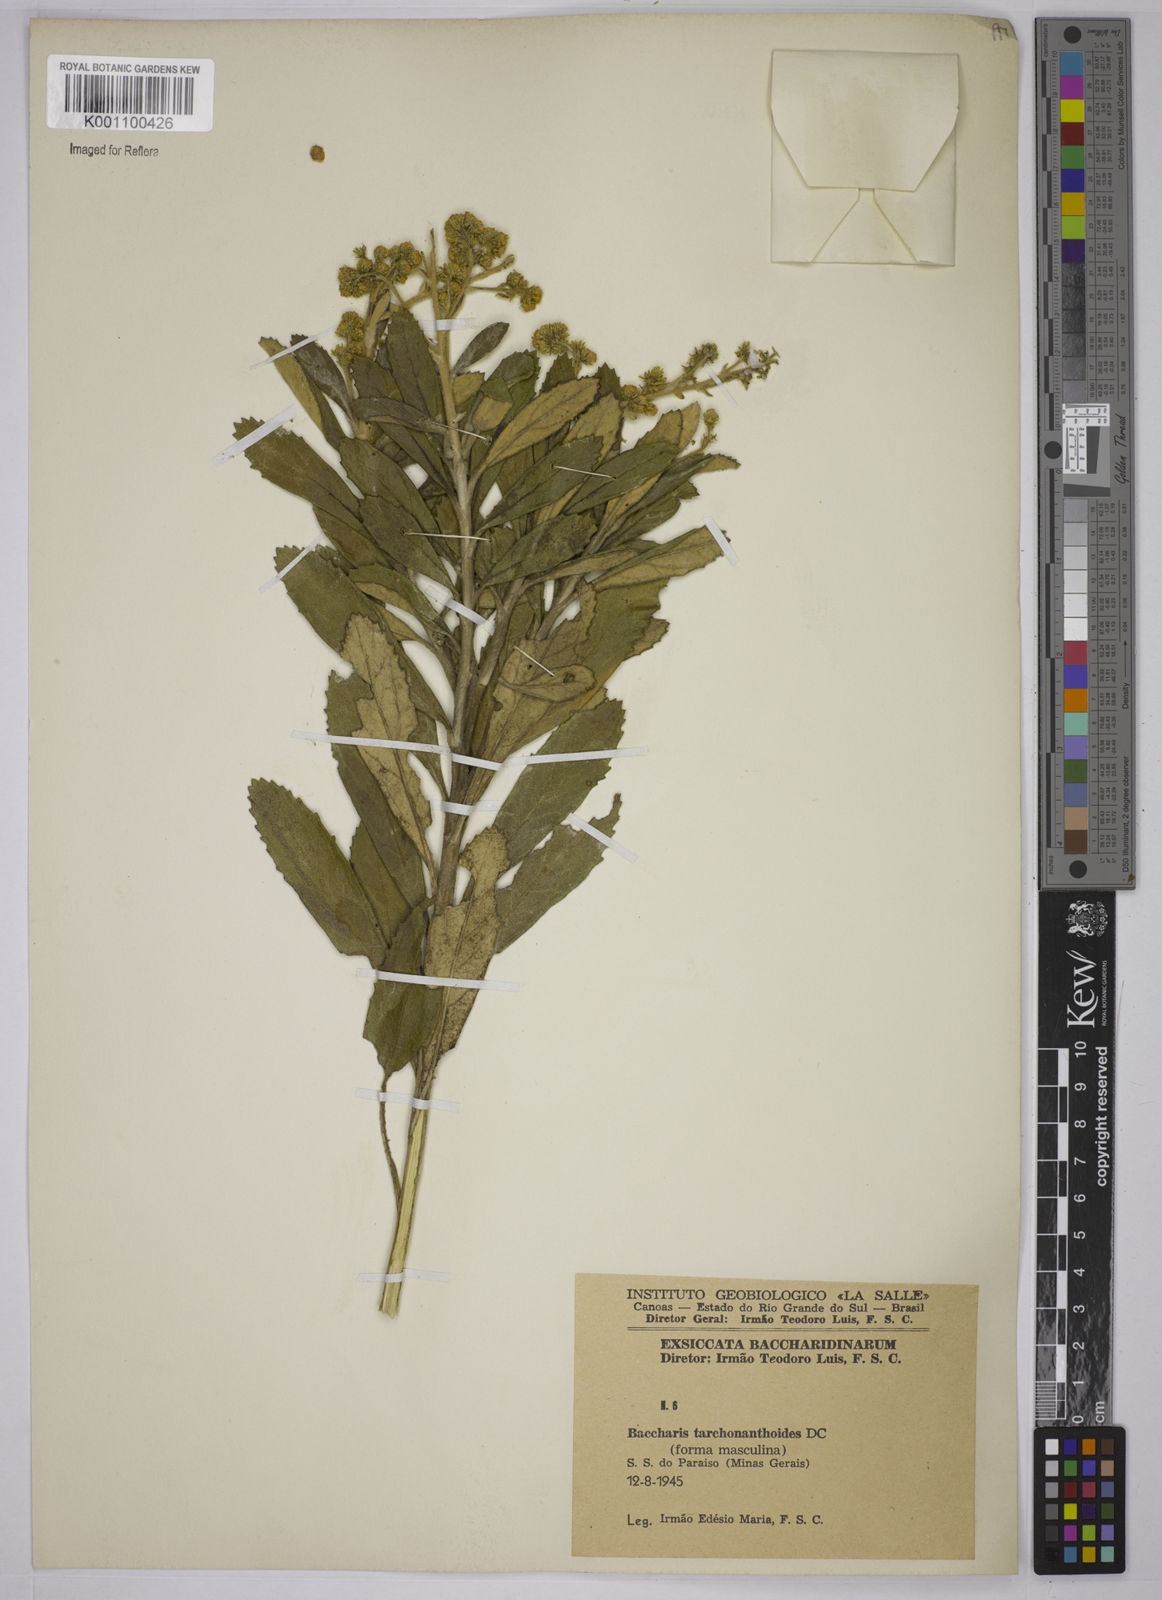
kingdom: Plantae
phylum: Tracheophyta
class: Magnoliopsida
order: Asterales
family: Asteraceae
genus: Baccharis
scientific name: Baccharis
